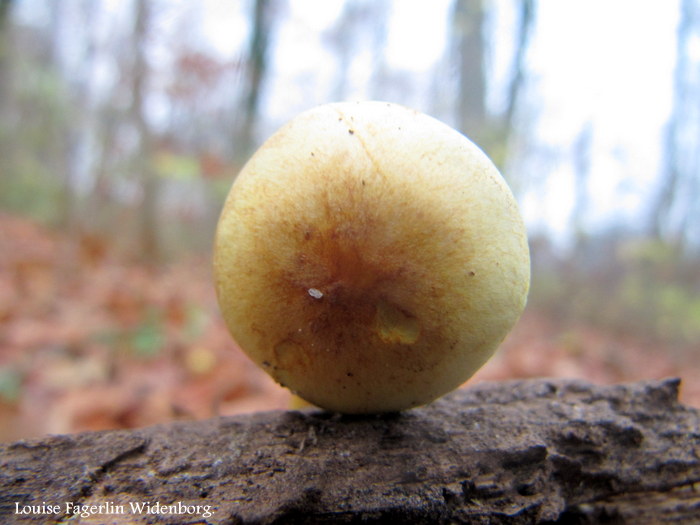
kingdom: Fungi
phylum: Basidiomycota
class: Agaricomycetes
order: Agaricales
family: Strophariaceae
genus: Hypholoma
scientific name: Hypholoma fasciculare
